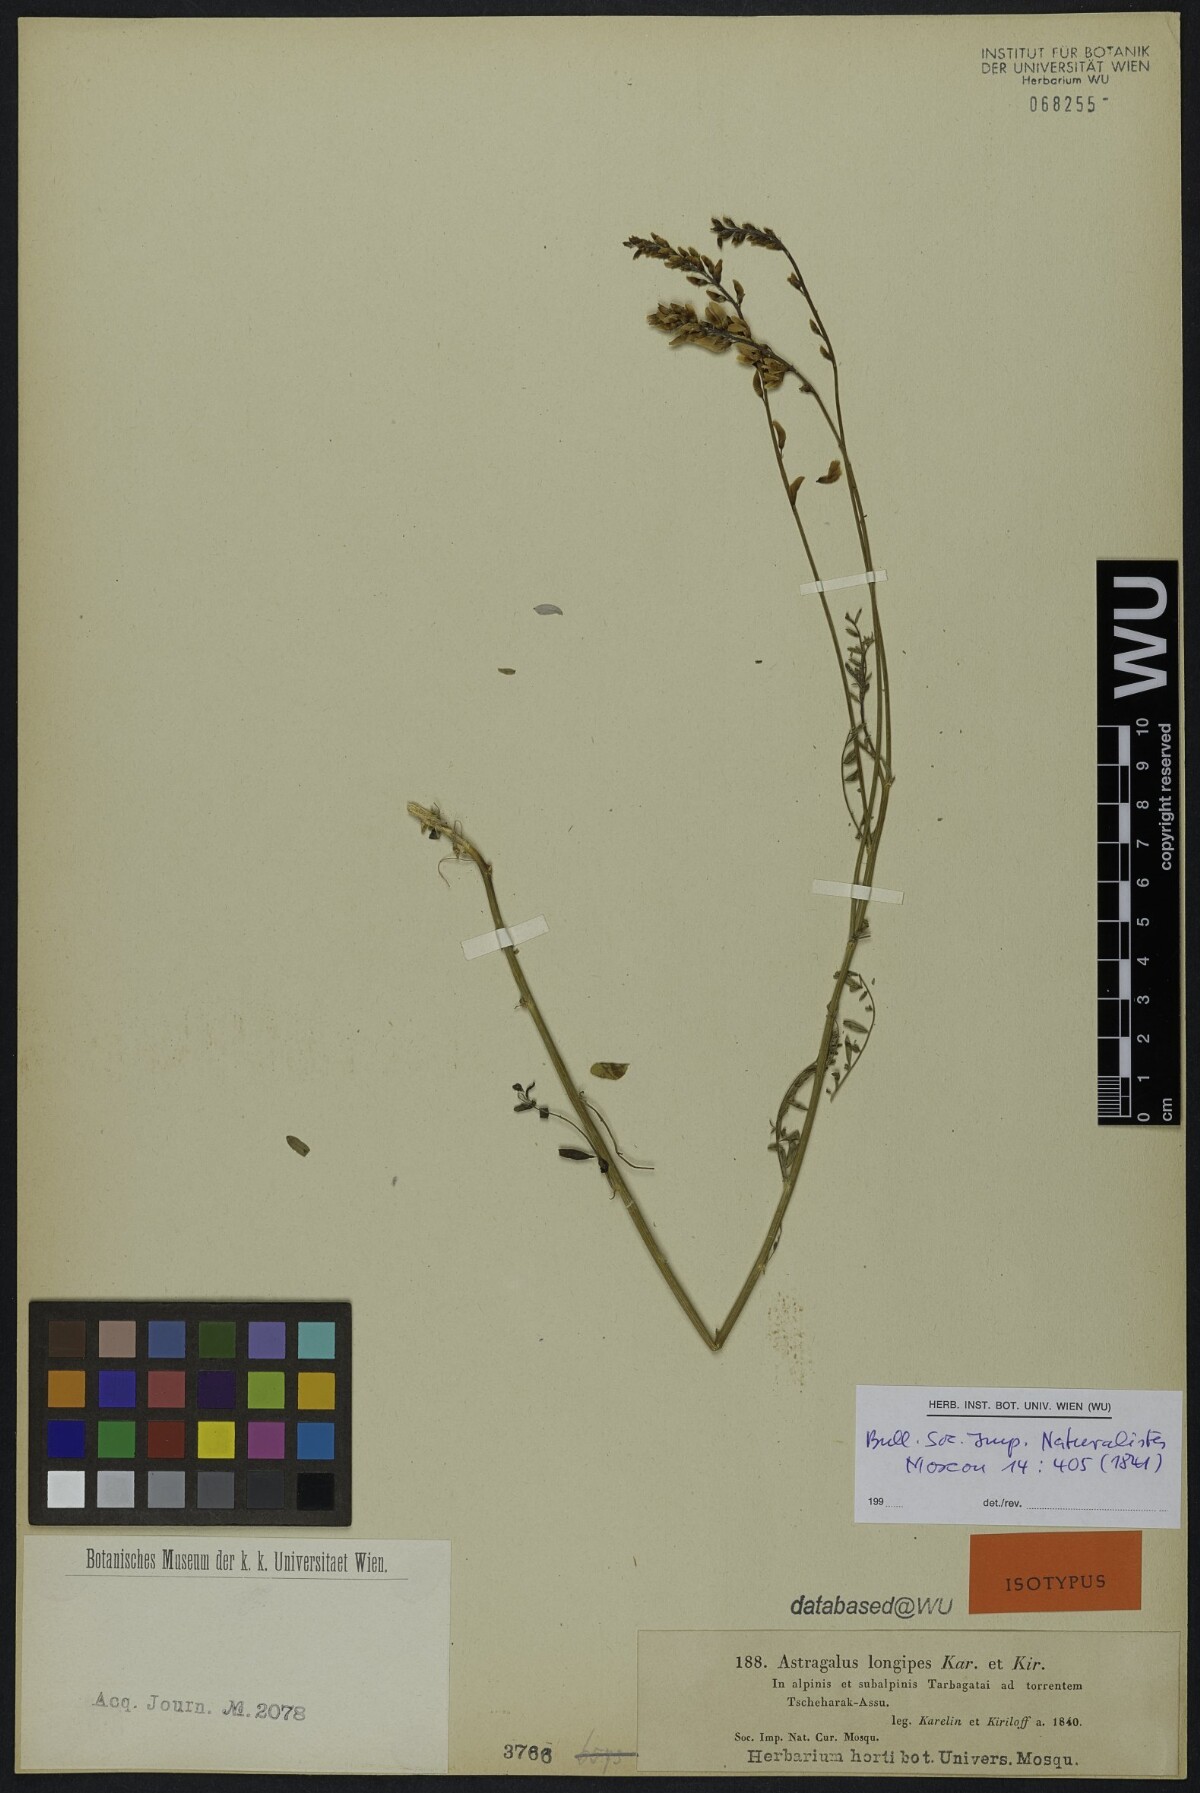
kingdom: Plantae
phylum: Tracheophyta
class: Magnoliopsida
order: Fabales
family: Fabaceae
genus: Astragalus
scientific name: Astragalus leptostachys
